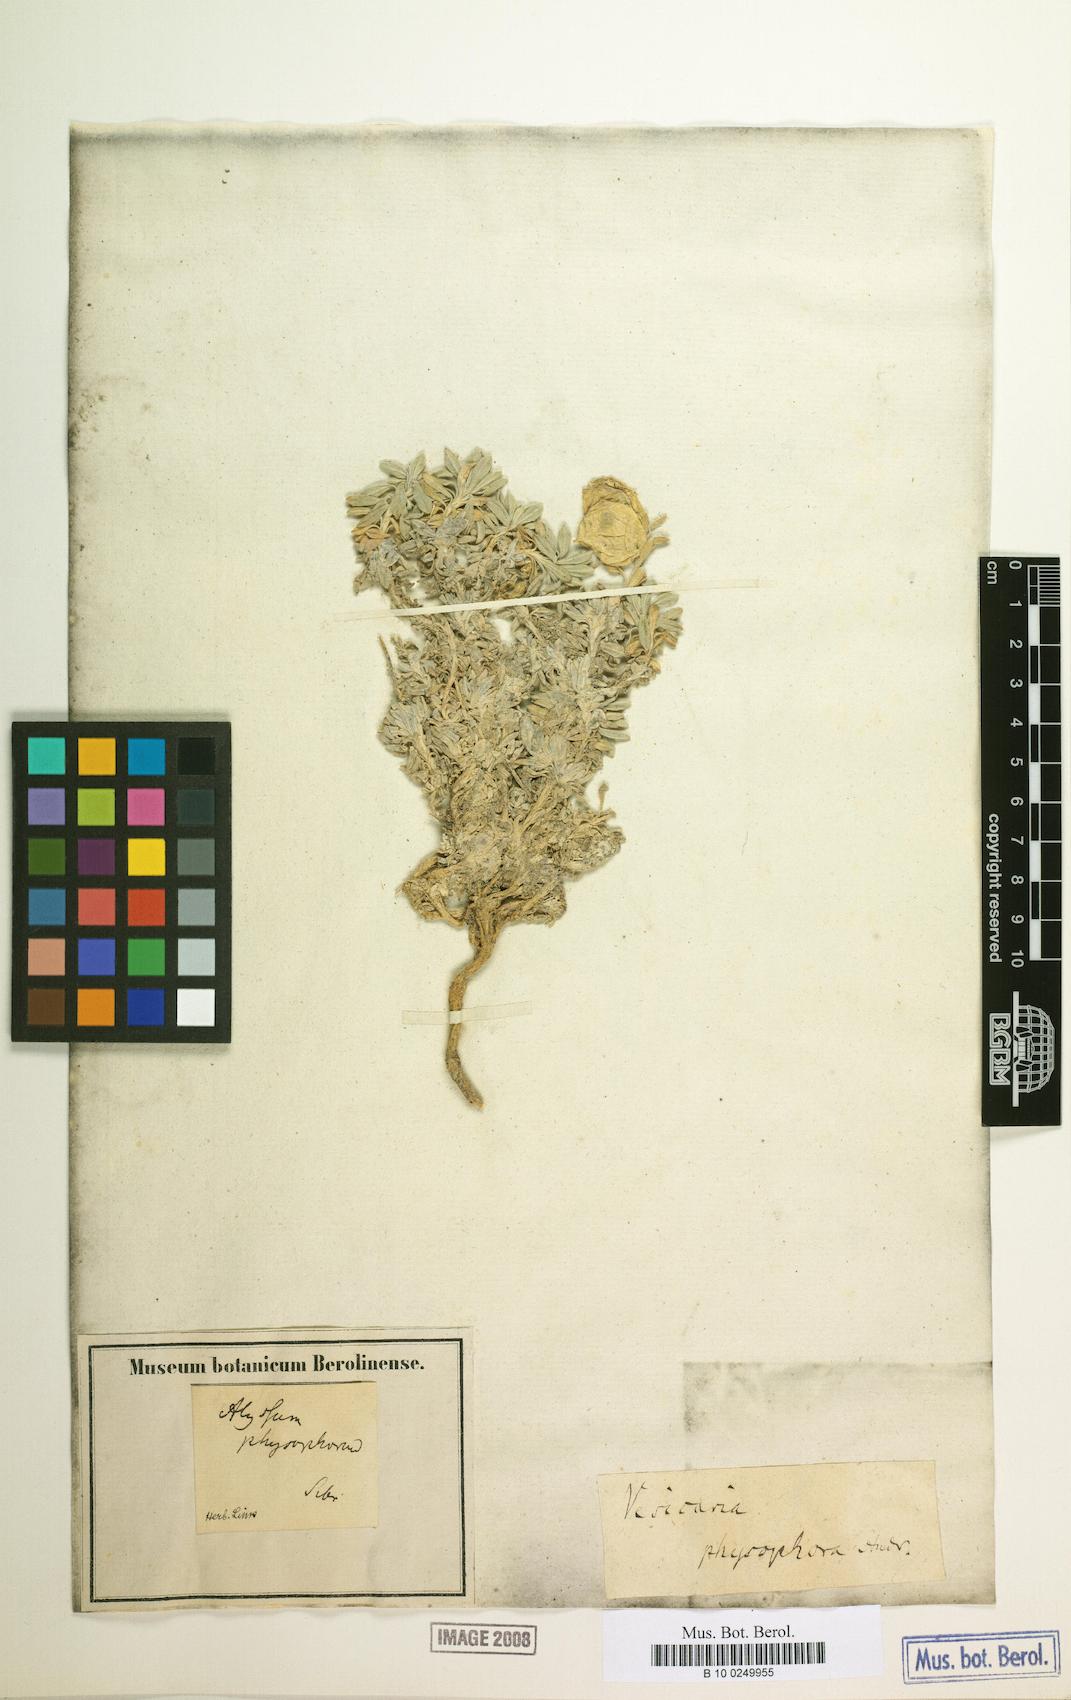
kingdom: Plantae
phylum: Tracheophyta
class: Magnoliopsida
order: Brassicales
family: Brassicaceae
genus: Physoptychis
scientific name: Physoptychis caspica
